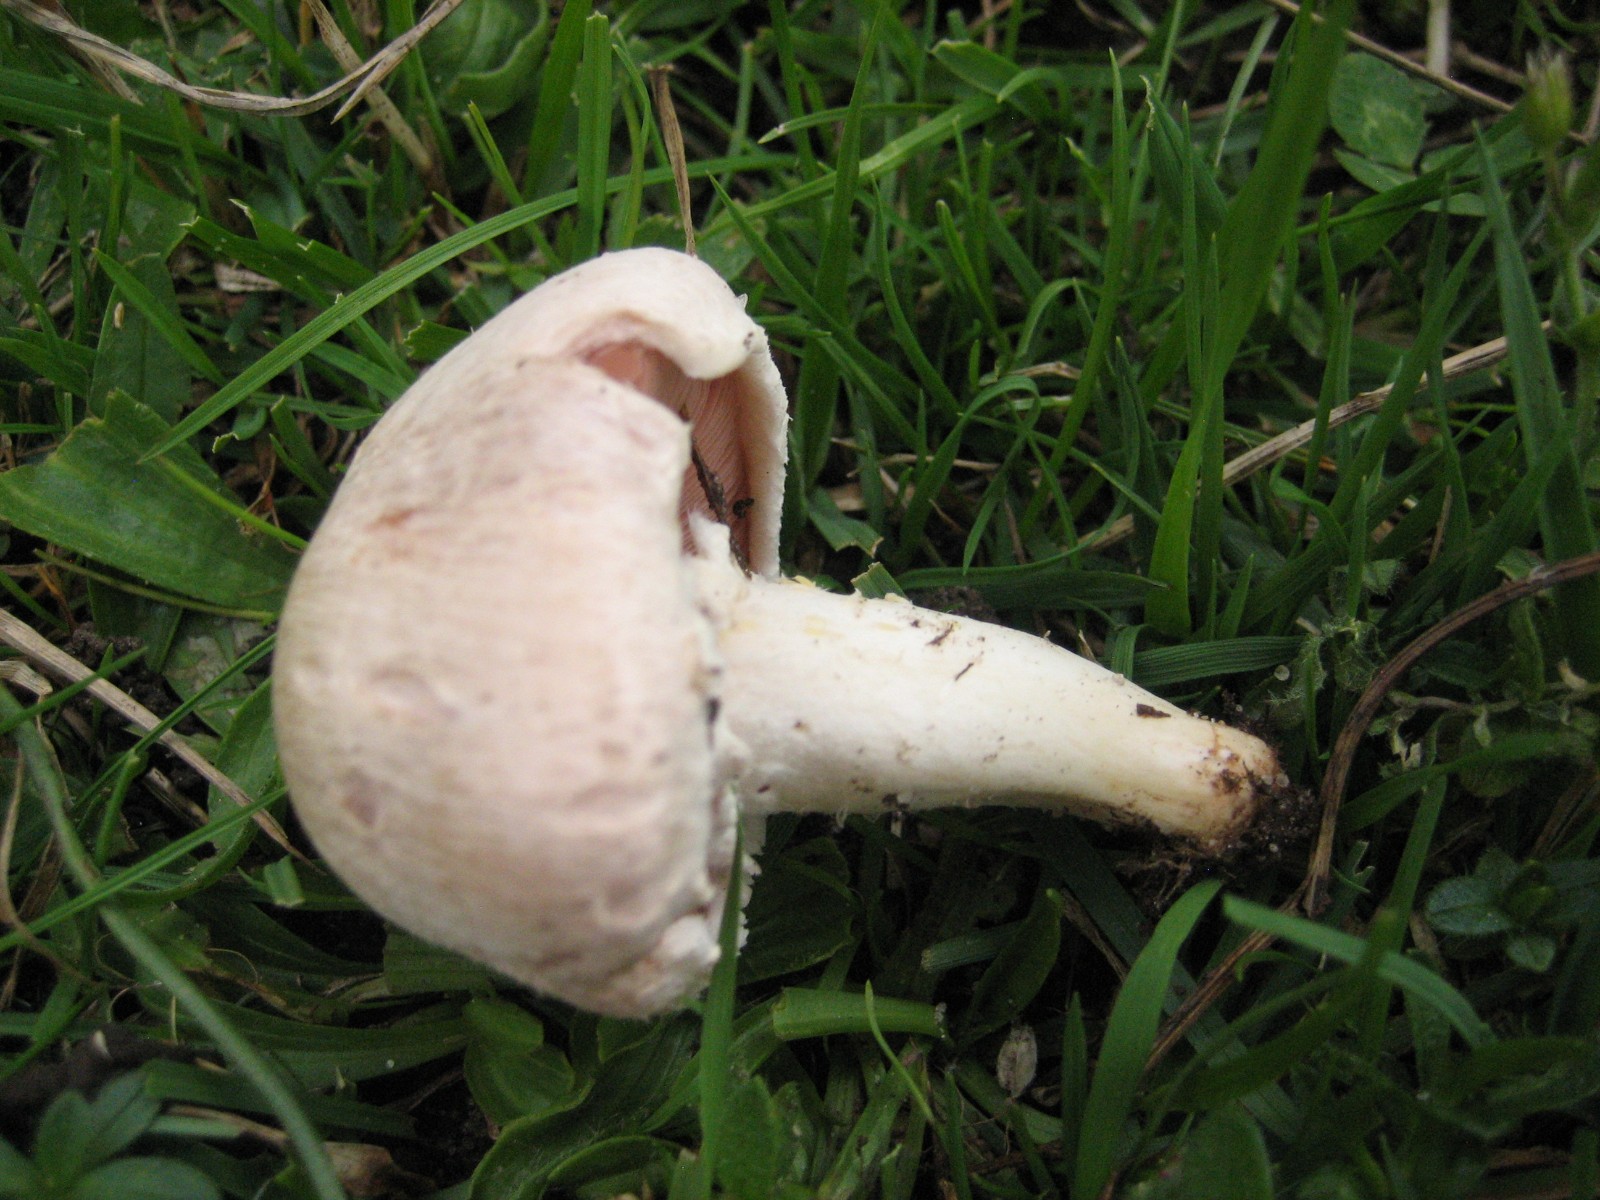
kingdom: Fungi
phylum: Basidiomycota
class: Agaricomycetes
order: Agaricales
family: Agaricaceae
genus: Agaricus
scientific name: Agaricus campestris
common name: mark-champignon
